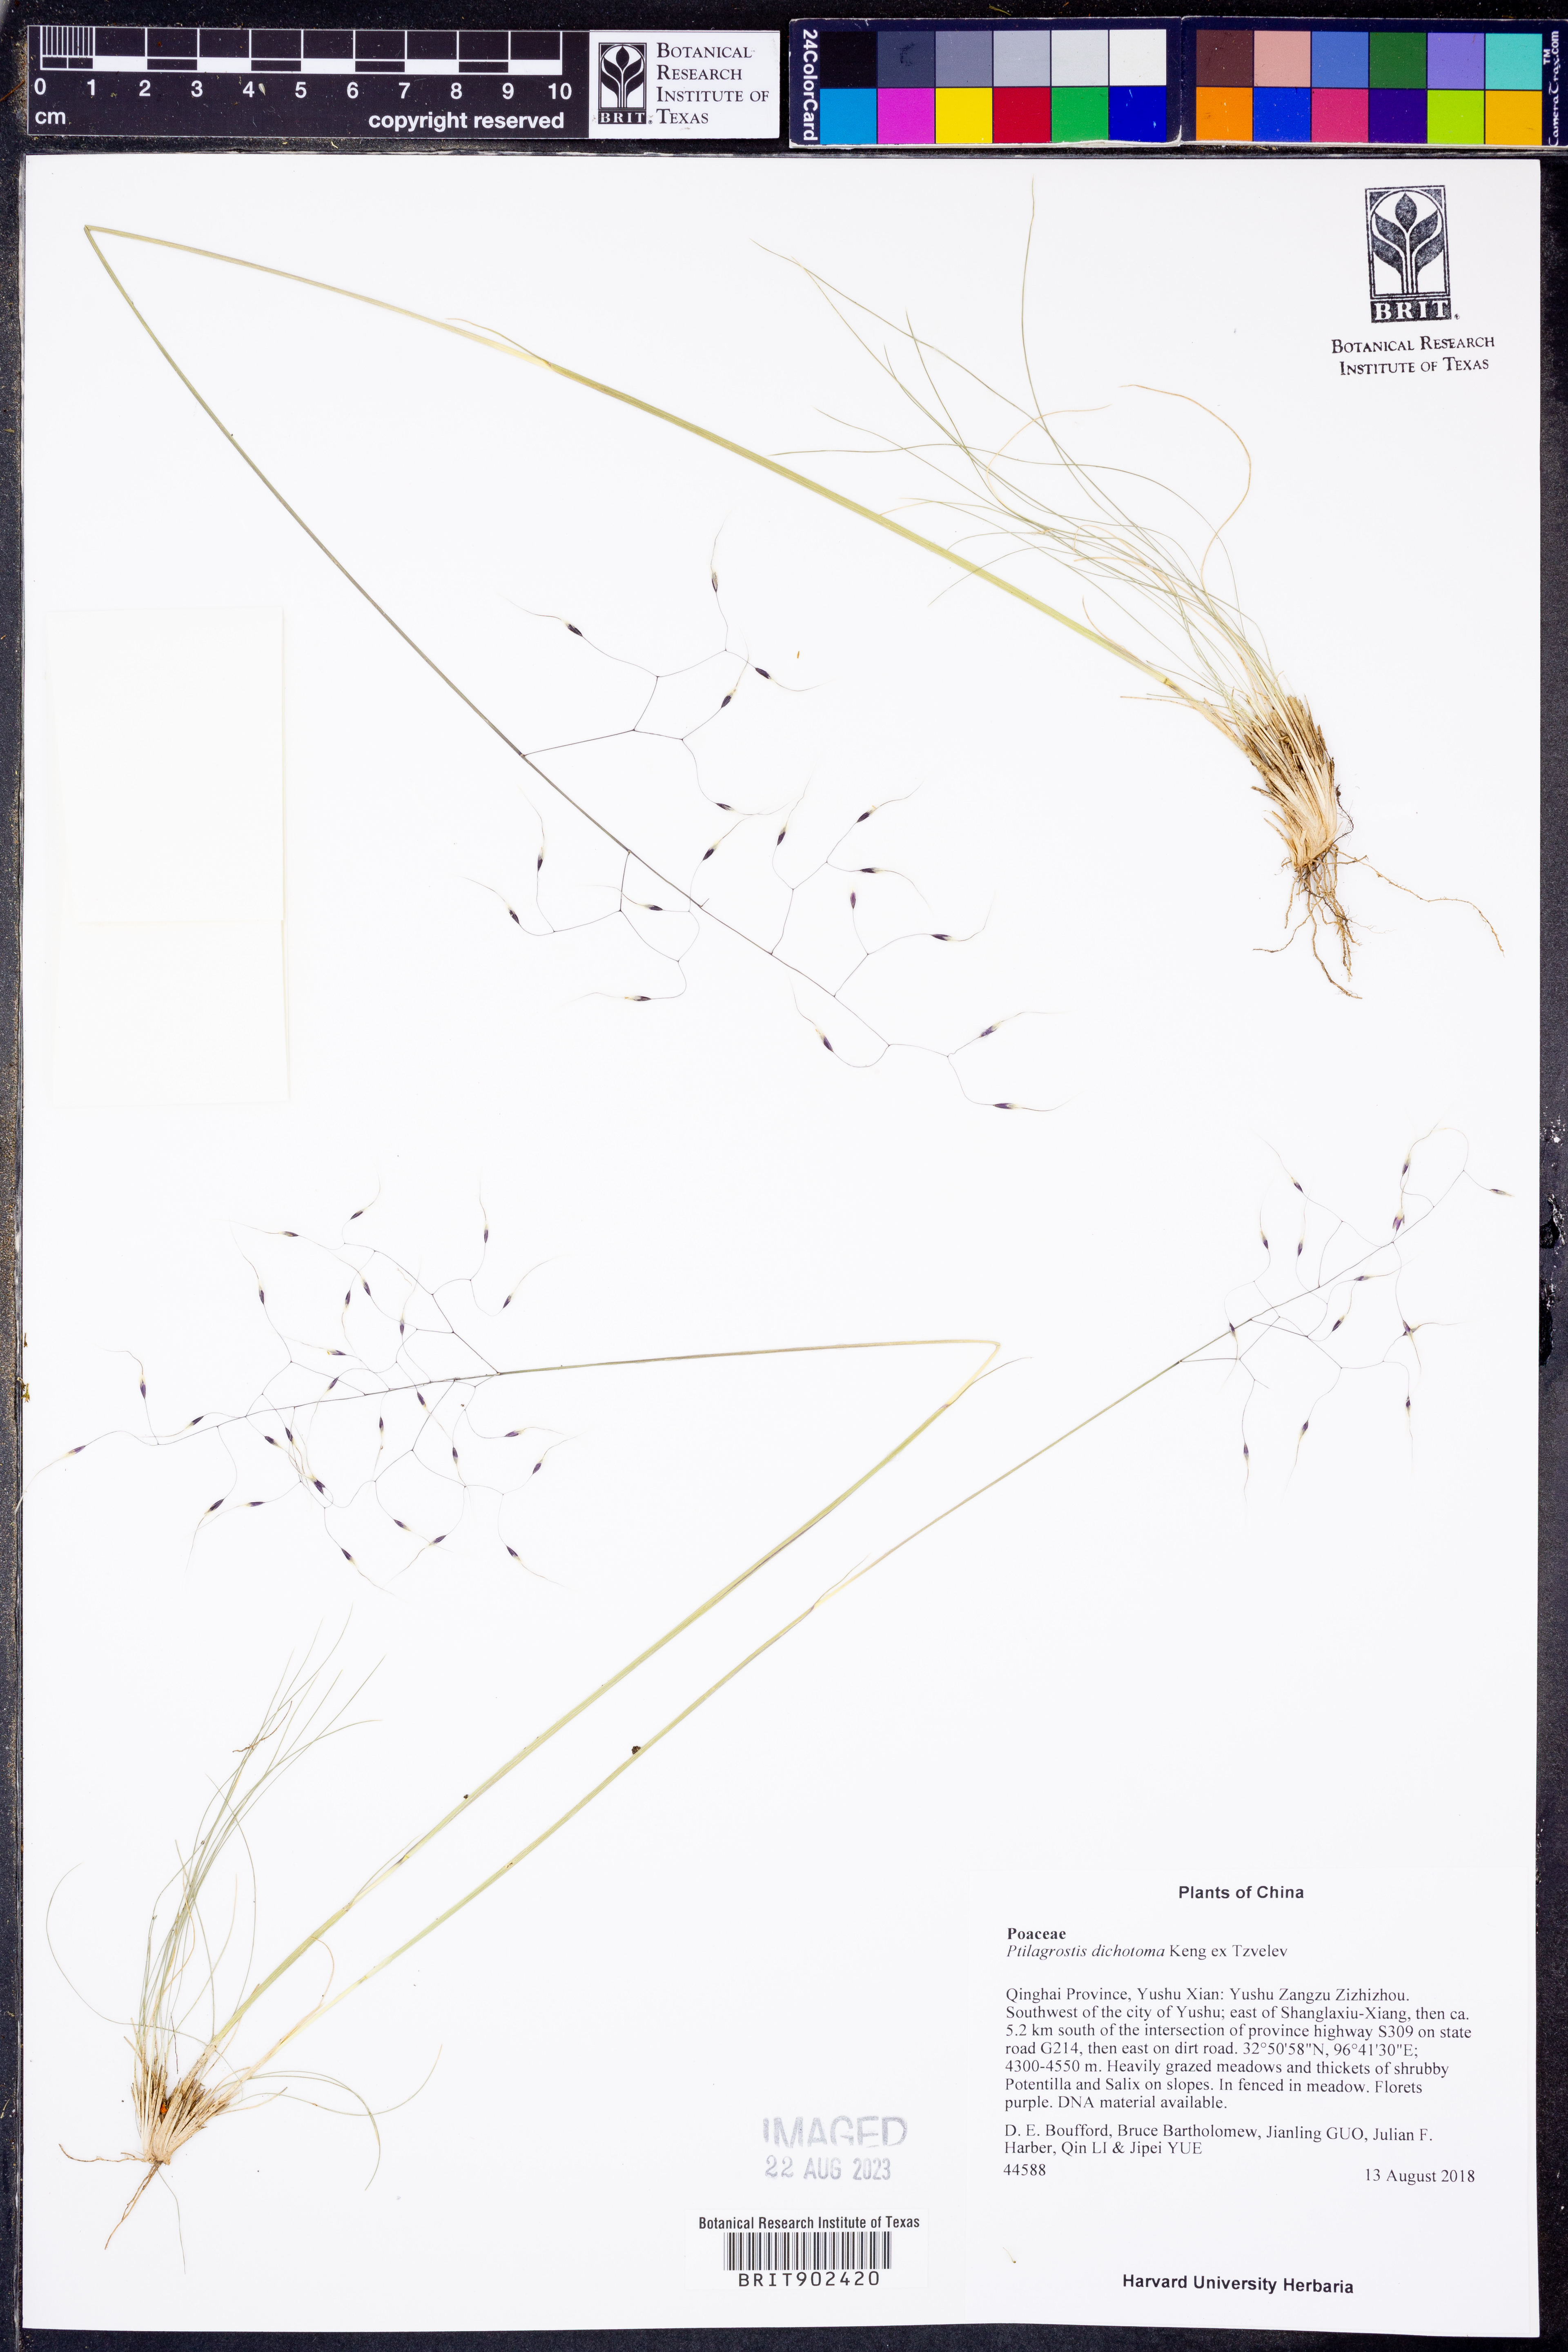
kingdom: Plantae
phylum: Tracheophyta
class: Liliopsida
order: Poales
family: Poaceae
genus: Ptilagrostis
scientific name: Ptilagrostis dichotoma
